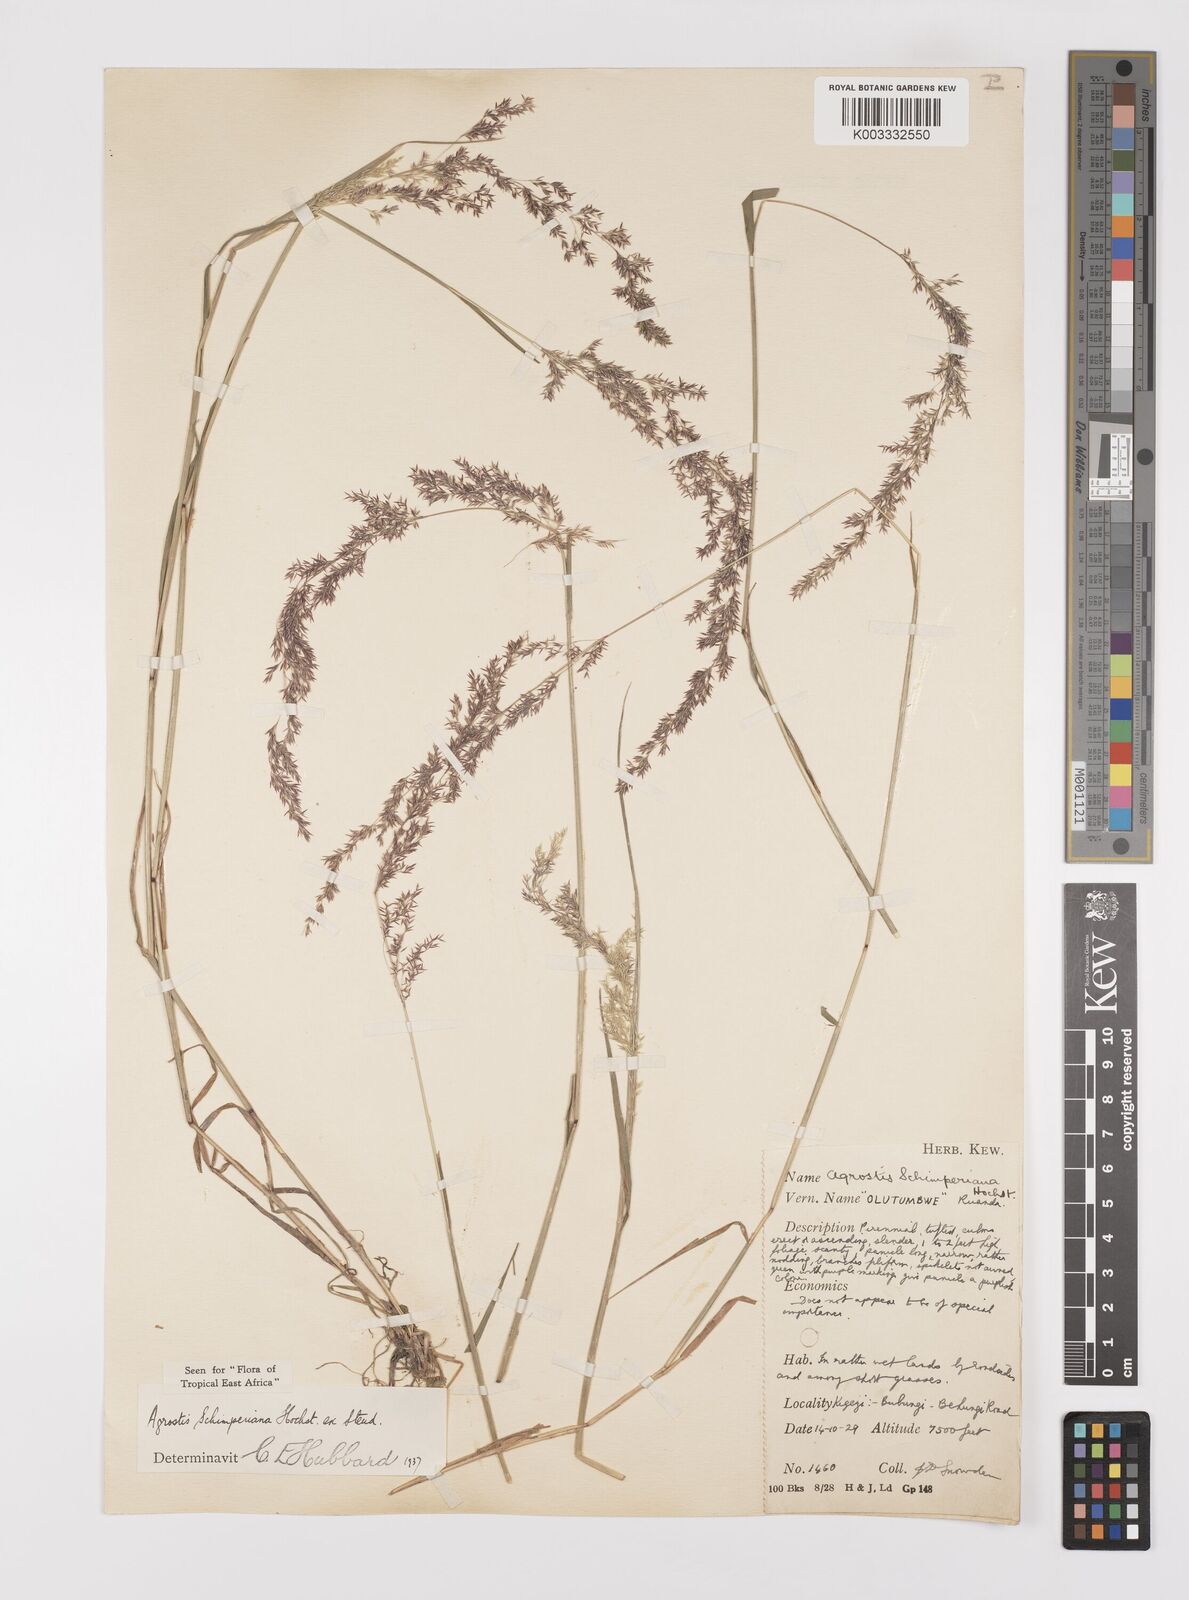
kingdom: Plantae
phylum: Tracheophyta
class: Liliopsida
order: Poales
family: Poaceae
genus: Polypogon
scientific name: Polypogon schimperianus
